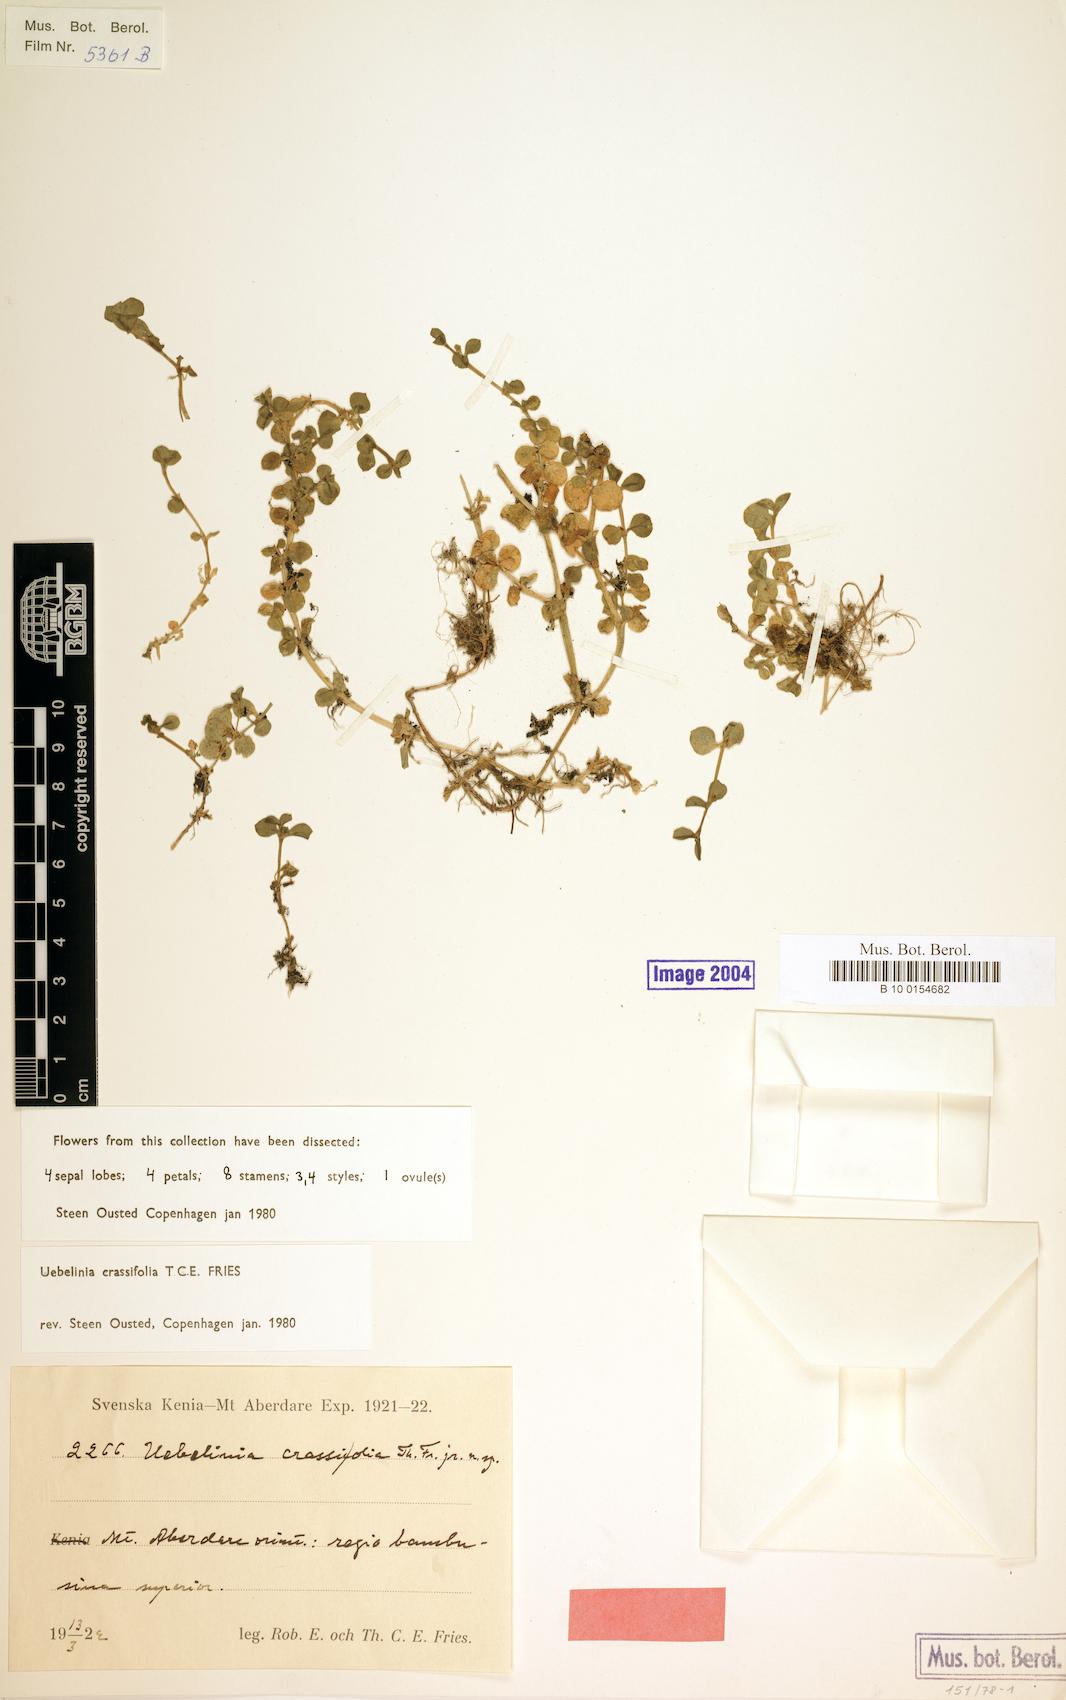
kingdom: Plantae
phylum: Tracheophyta
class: Magnoliopsida
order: Caryophyllales
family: Caryophyllaceae
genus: Silene
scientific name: Silene kenyana
